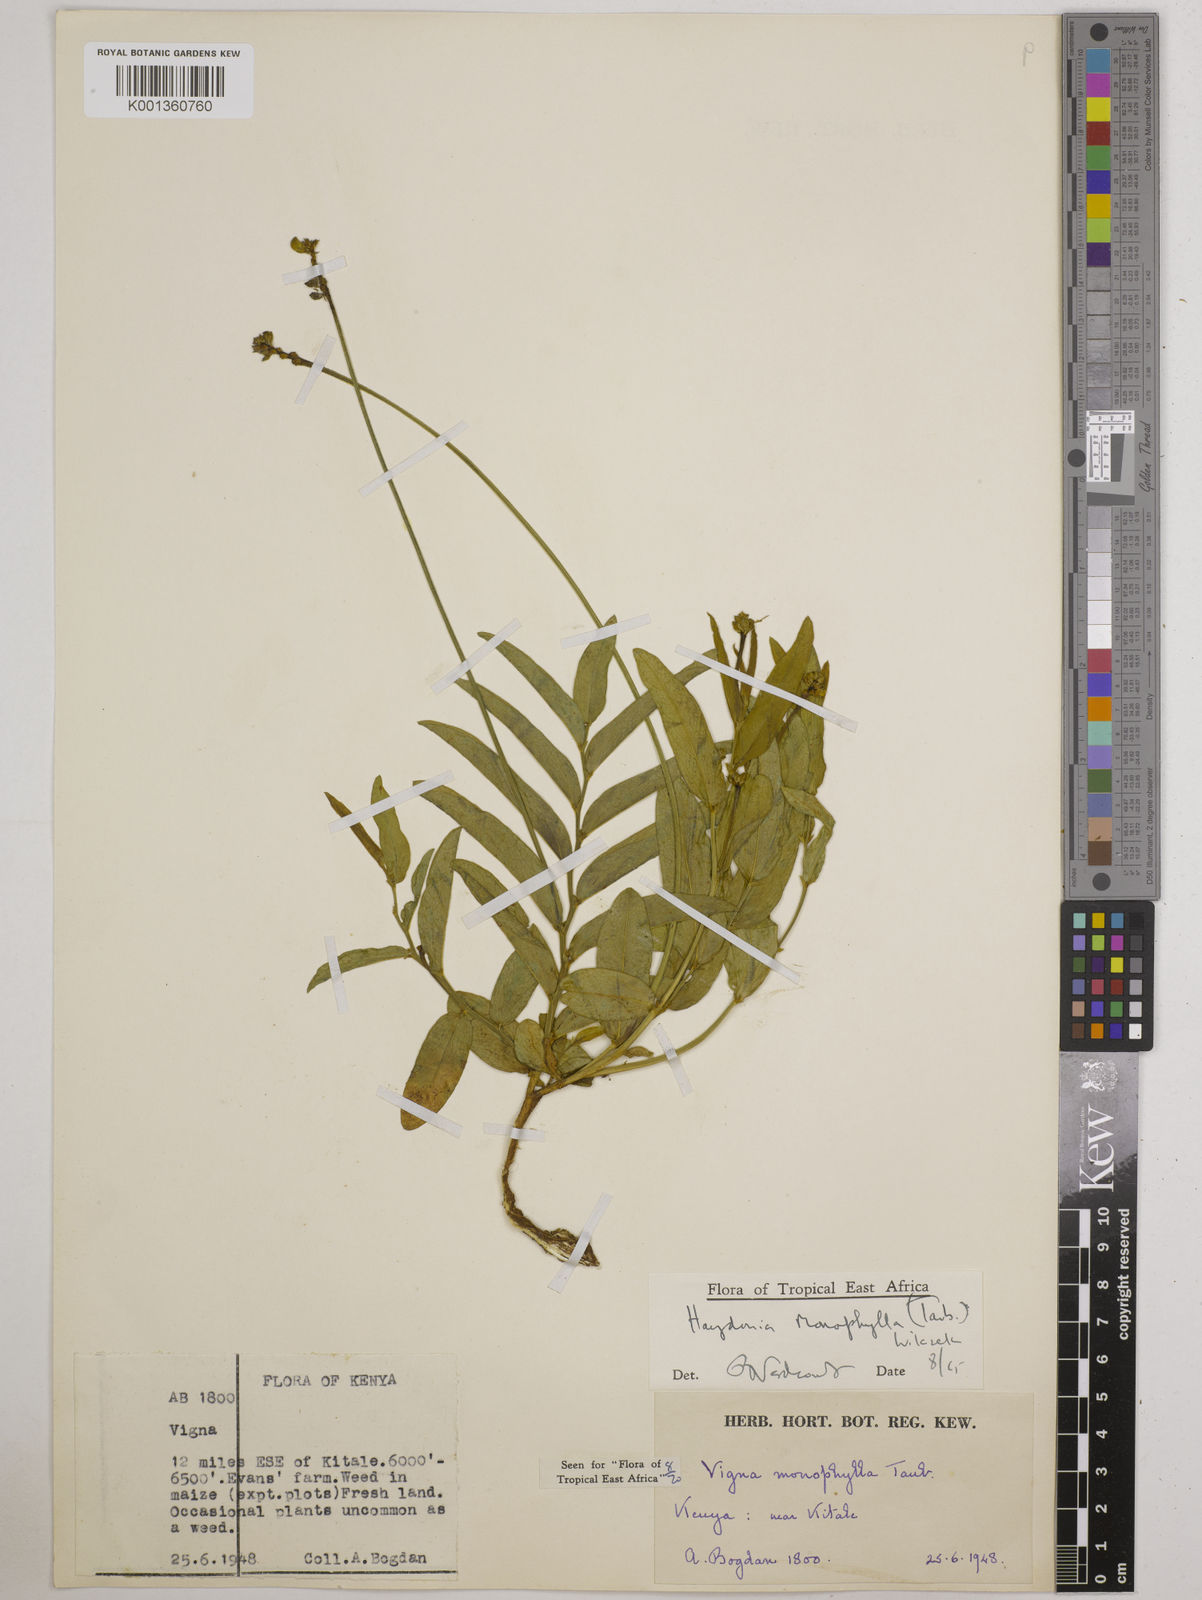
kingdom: Plantae
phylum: Tracheophyta
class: Magnoliopsida
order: Fabales
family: Fabaceae
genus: Vigna
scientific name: Vigna monophylla
